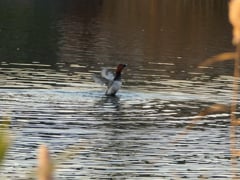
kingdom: Animalia
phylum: Chordata
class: Aves
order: Anseriformes
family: Anatidae
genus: Aythya
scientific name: Aythya ferina
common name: Common pochard
